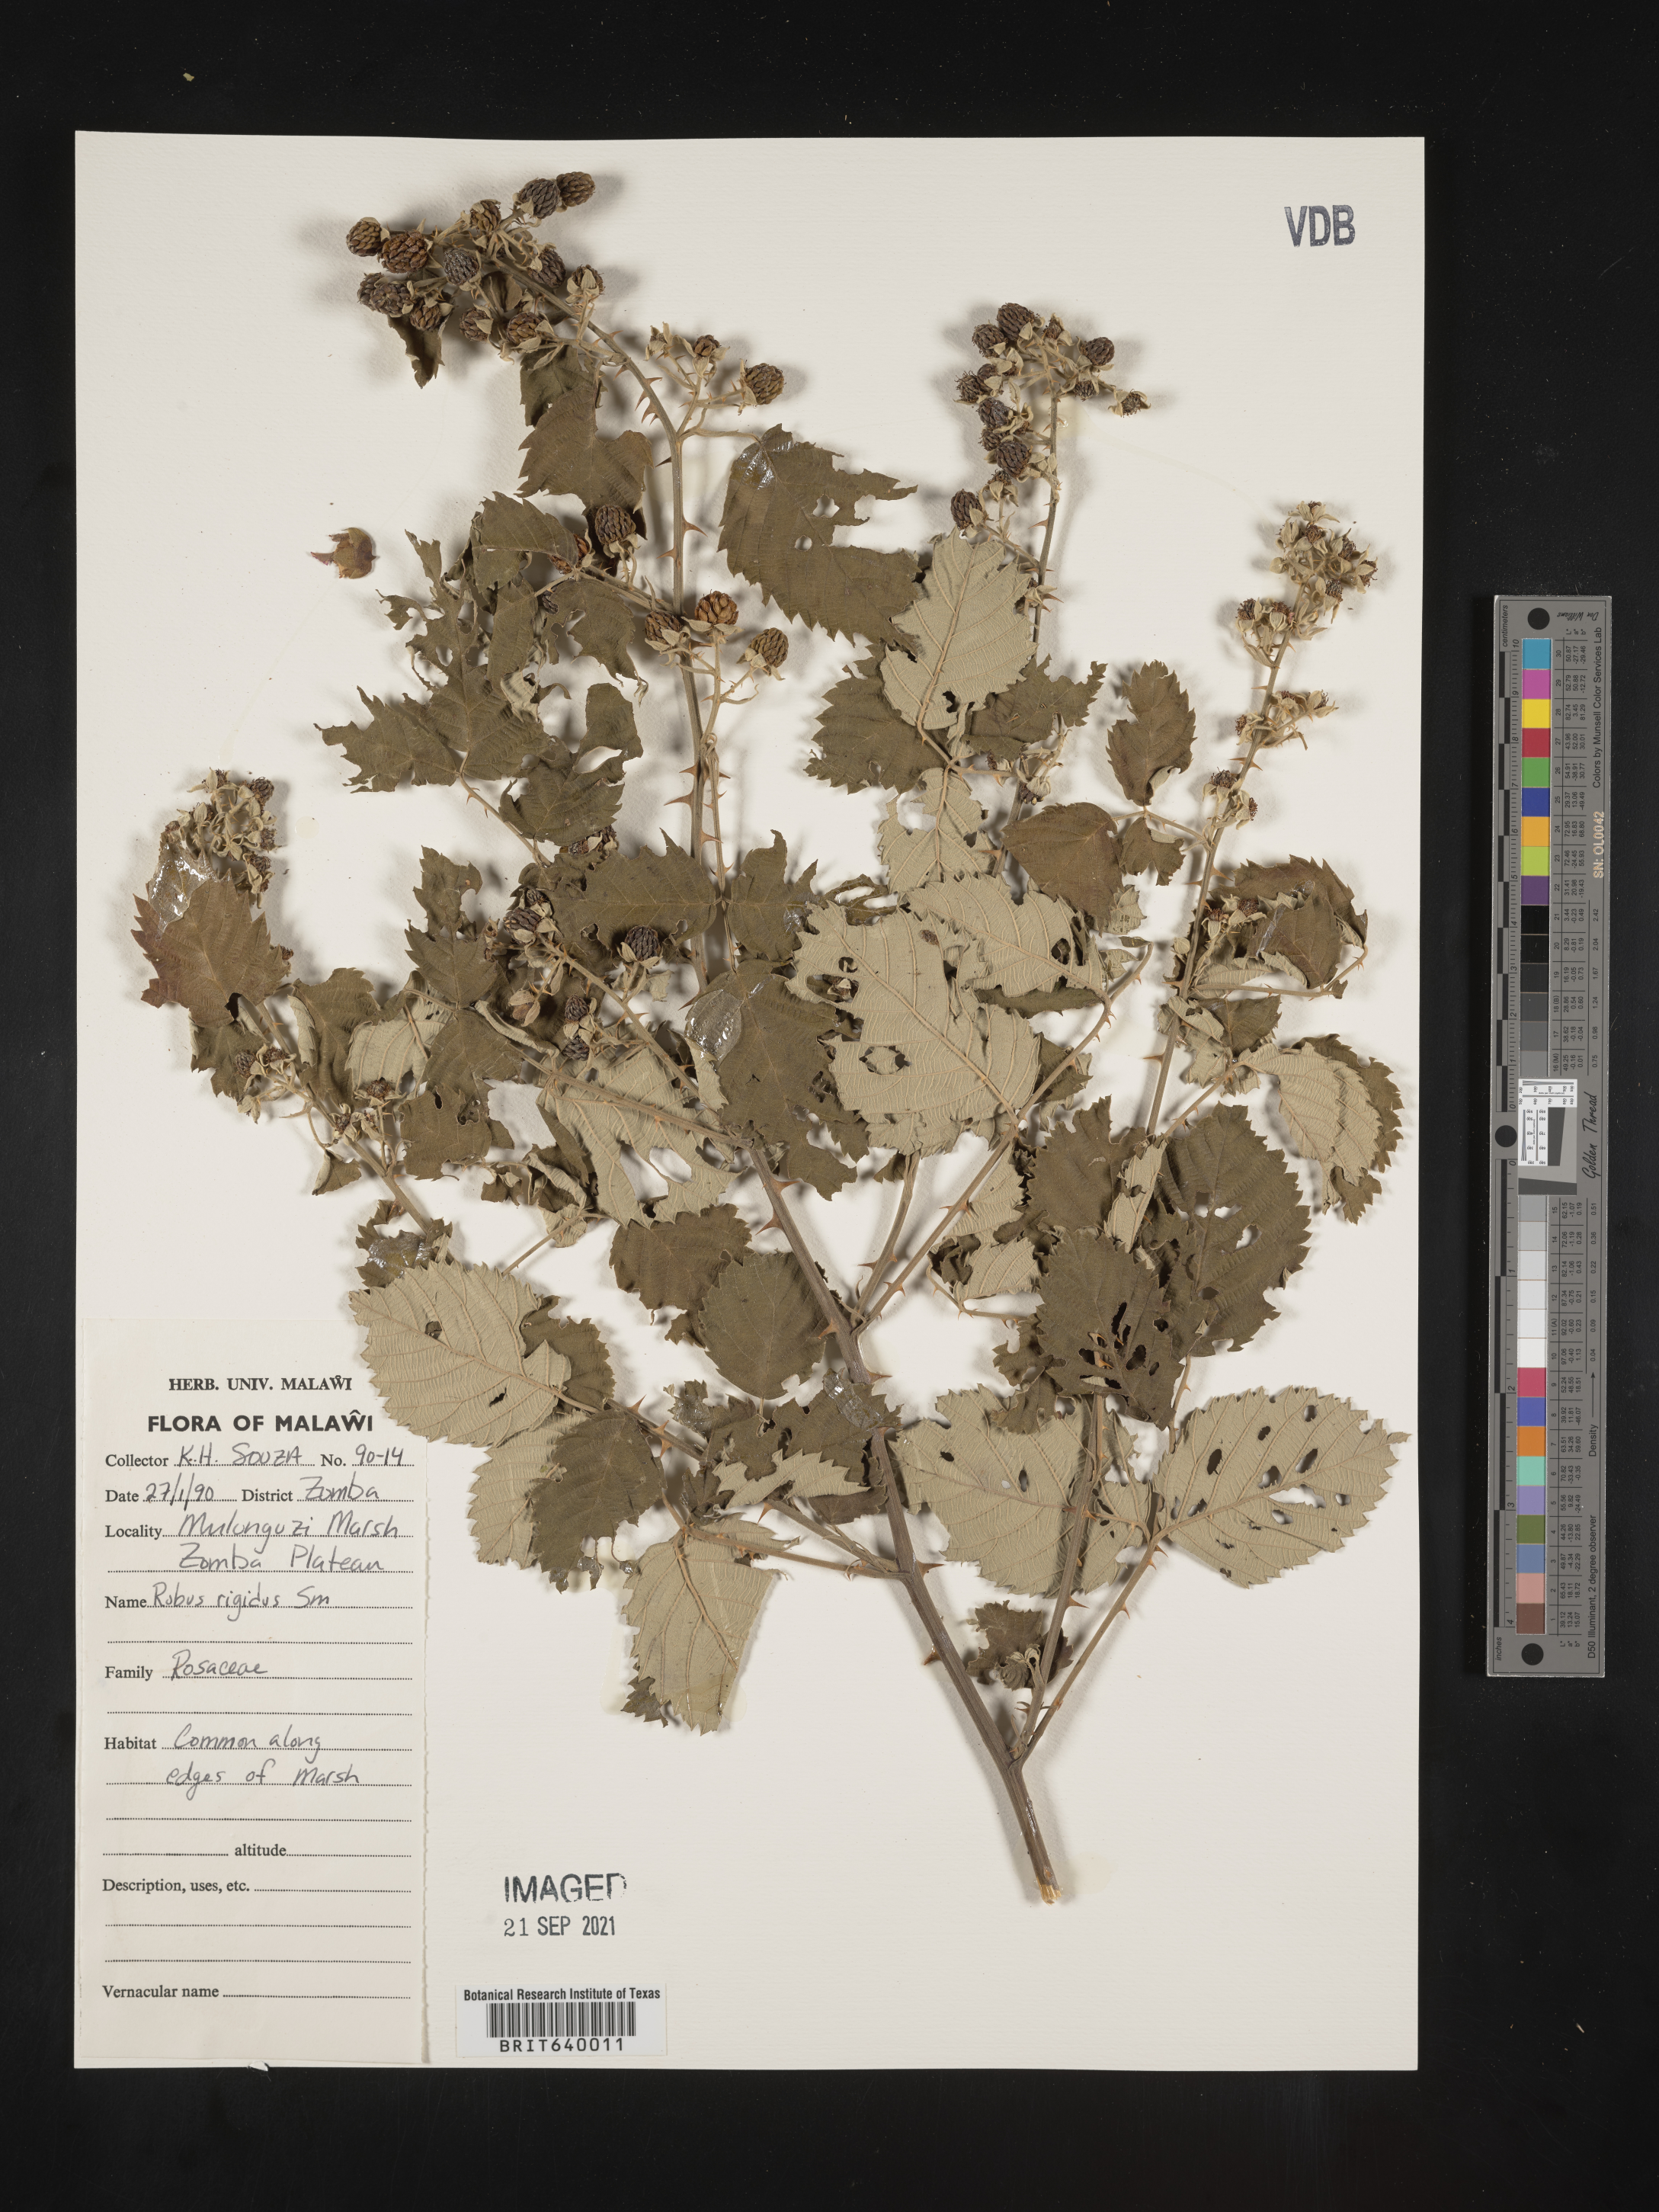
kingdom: Plantae
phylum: Tracheophyta
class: Magnoliopsida
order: Rosales
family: Rosaceae
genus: Rubus
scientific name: Rubus
